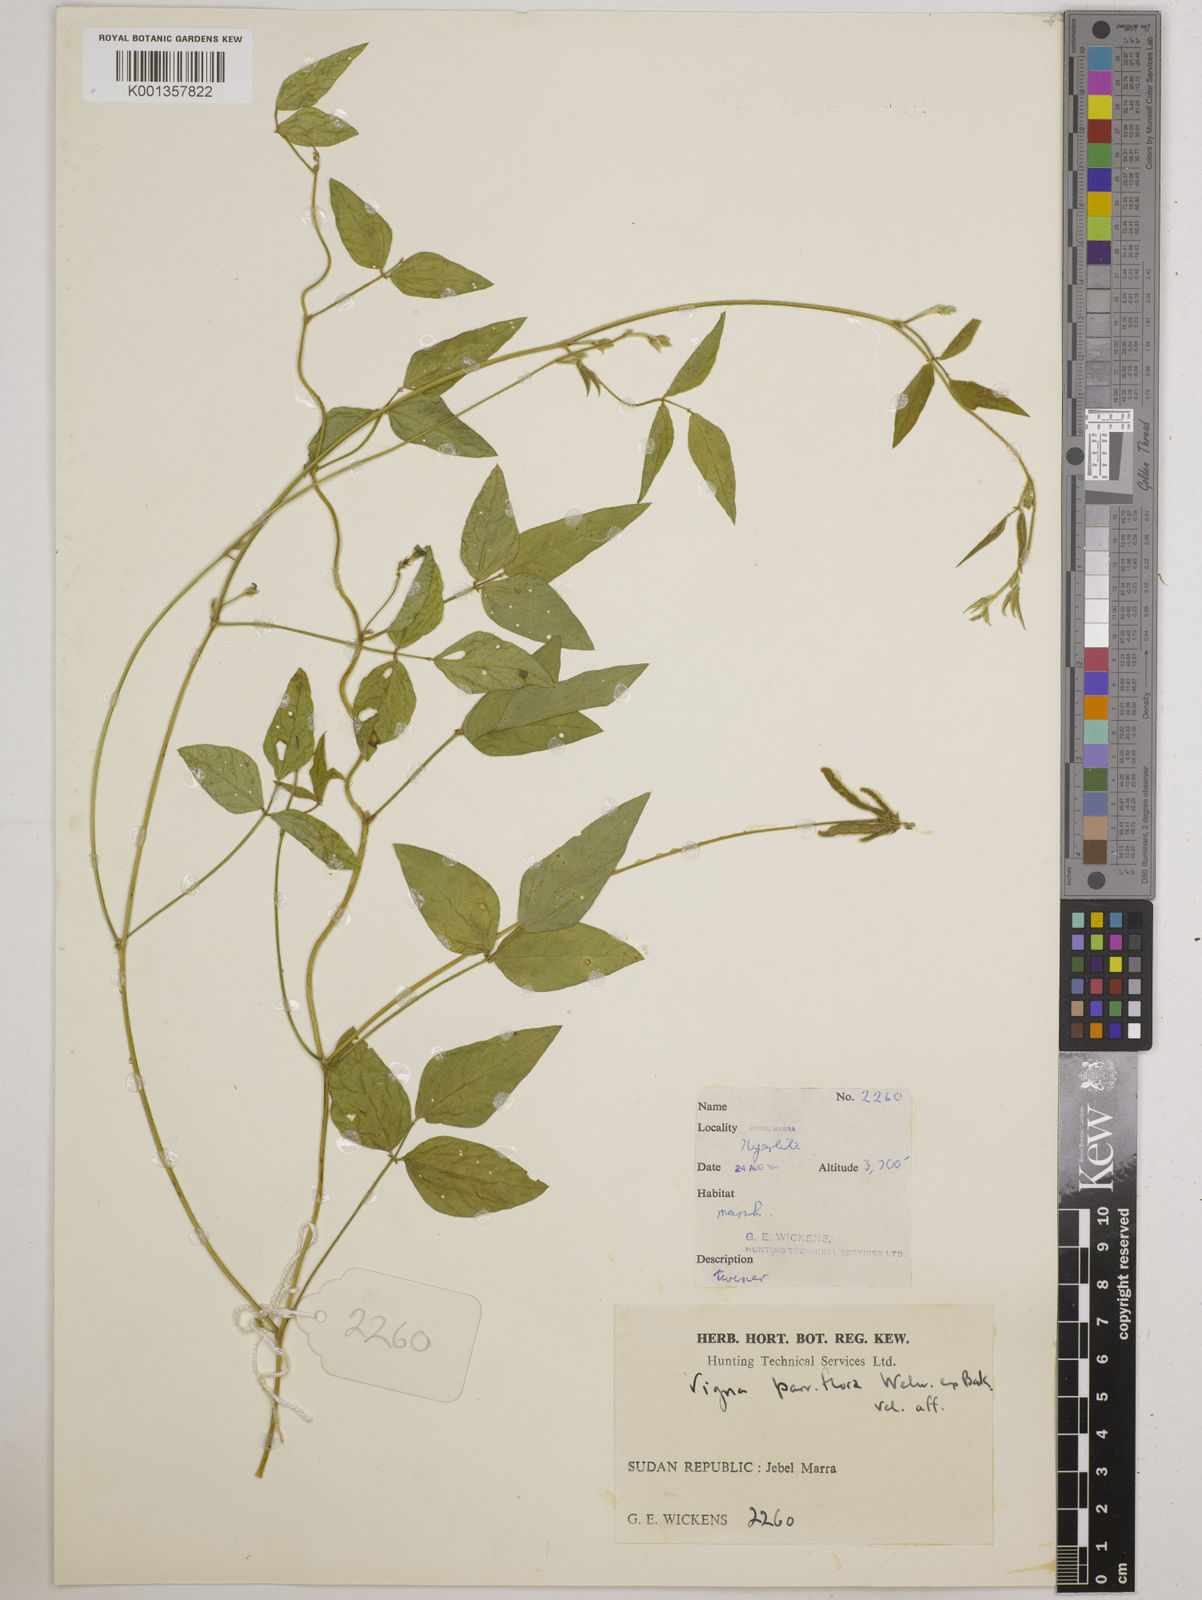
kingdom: Plantae
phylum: Tracheophyta
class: Magnoliopsida
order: Fabales
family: Fabaceae
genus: Vigna
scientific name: Vigna
